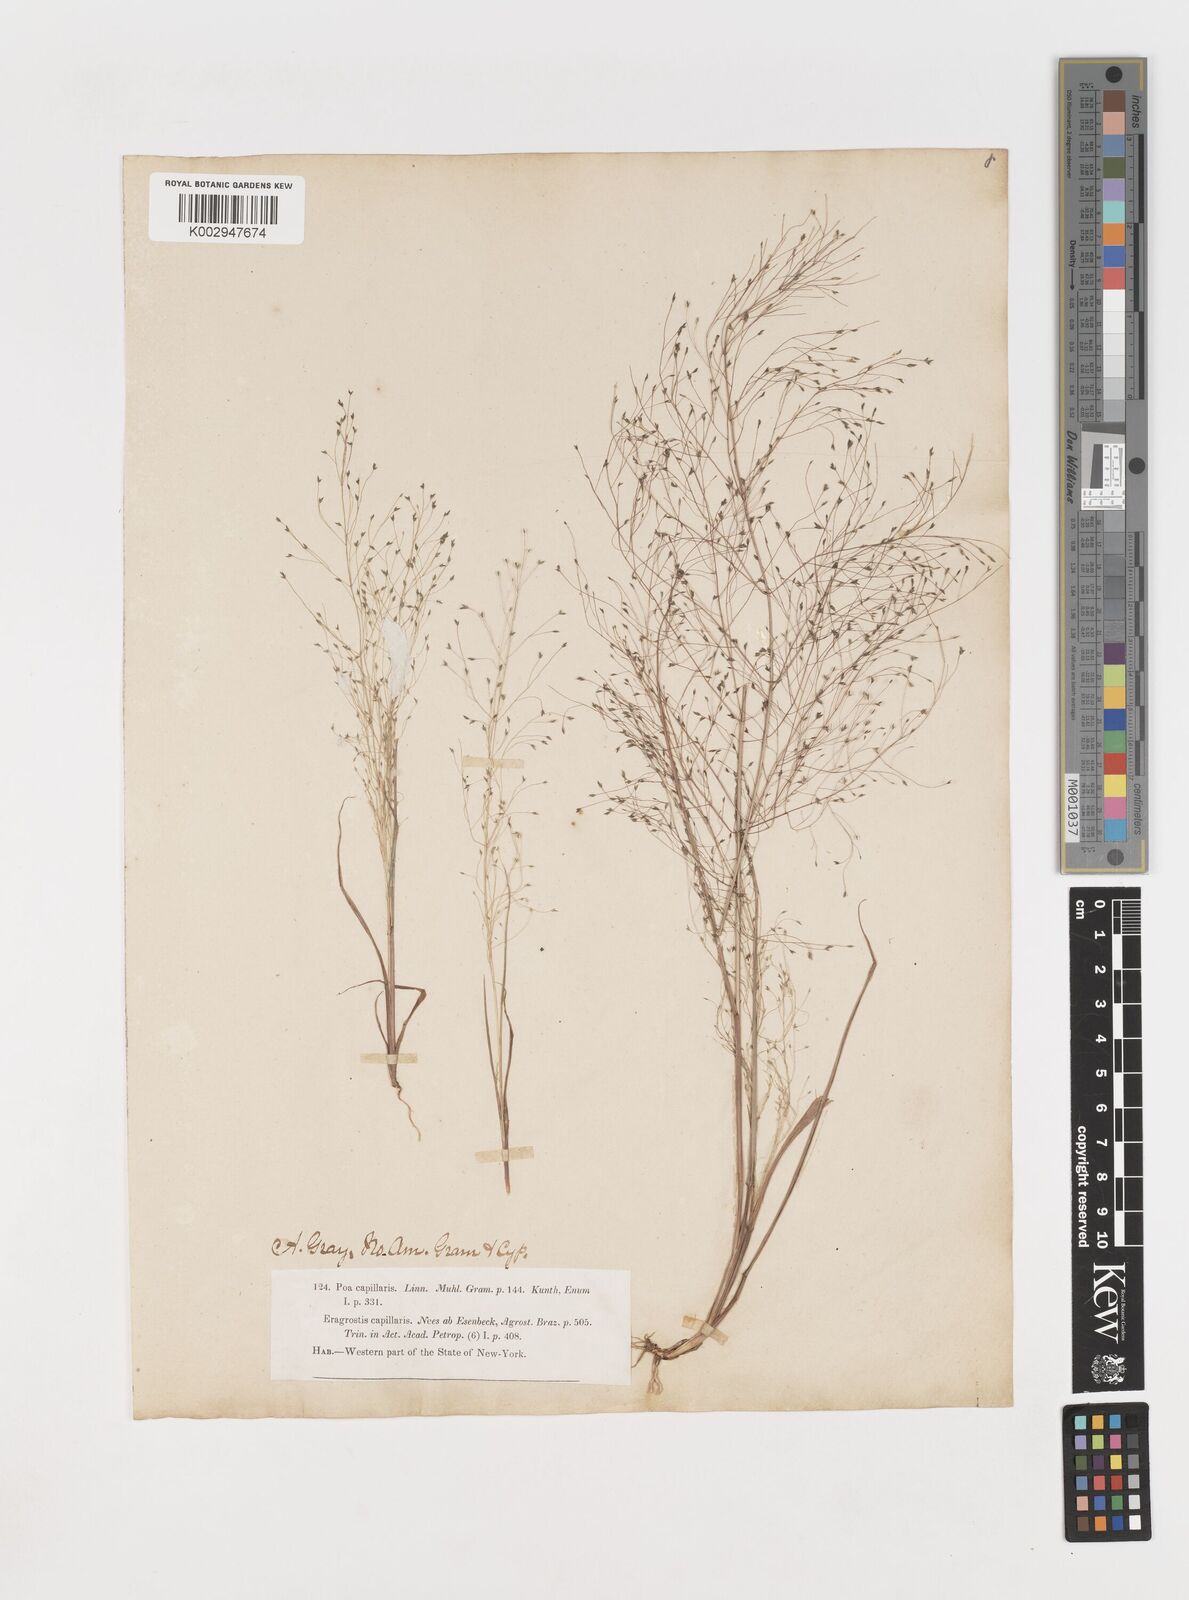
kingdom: Plantae
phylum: Tracheophyta
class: Liliopsida
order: Poales
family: Poaceae
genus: Eragrostis
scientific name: Eragrostis capillaris
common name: Hair-like lovegrass
